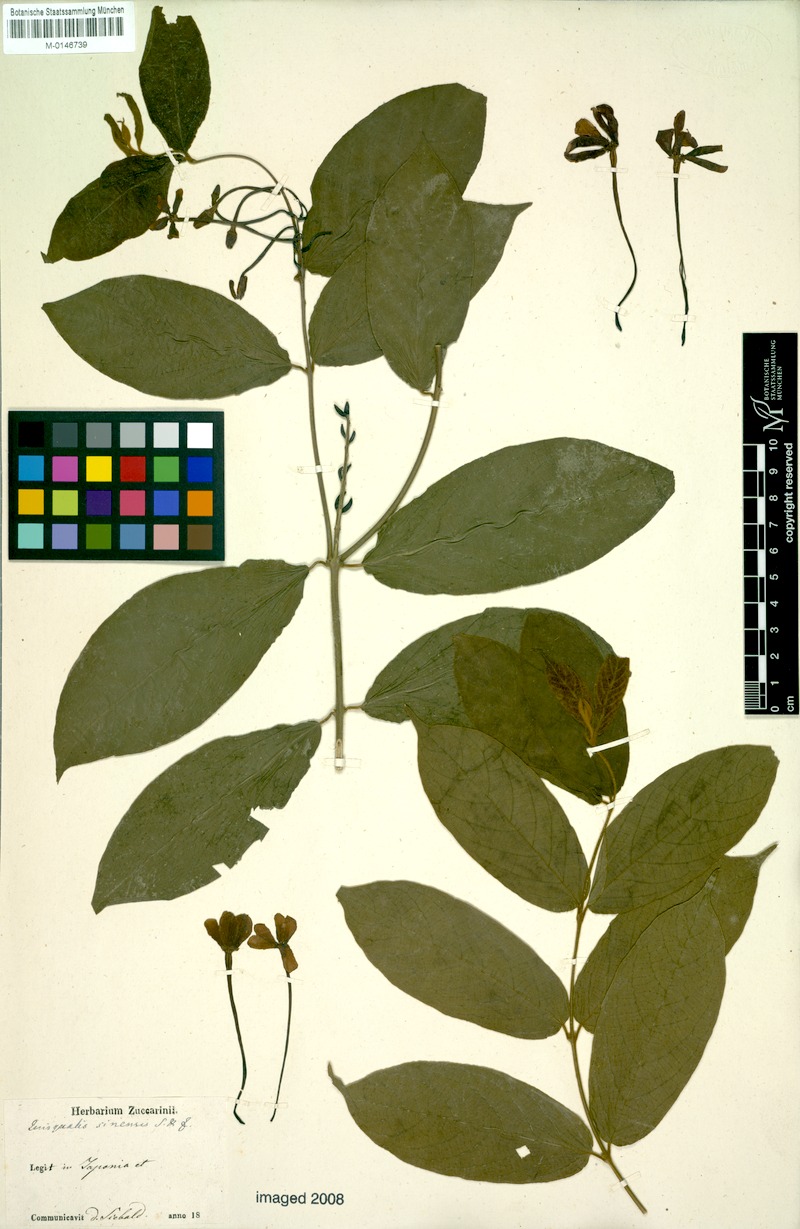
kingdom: Plantae
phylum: Tracheophyta
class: Magnoliopsida
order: Myrtales
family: Combretaceae
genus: Combretum
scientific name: Combretum indicum
